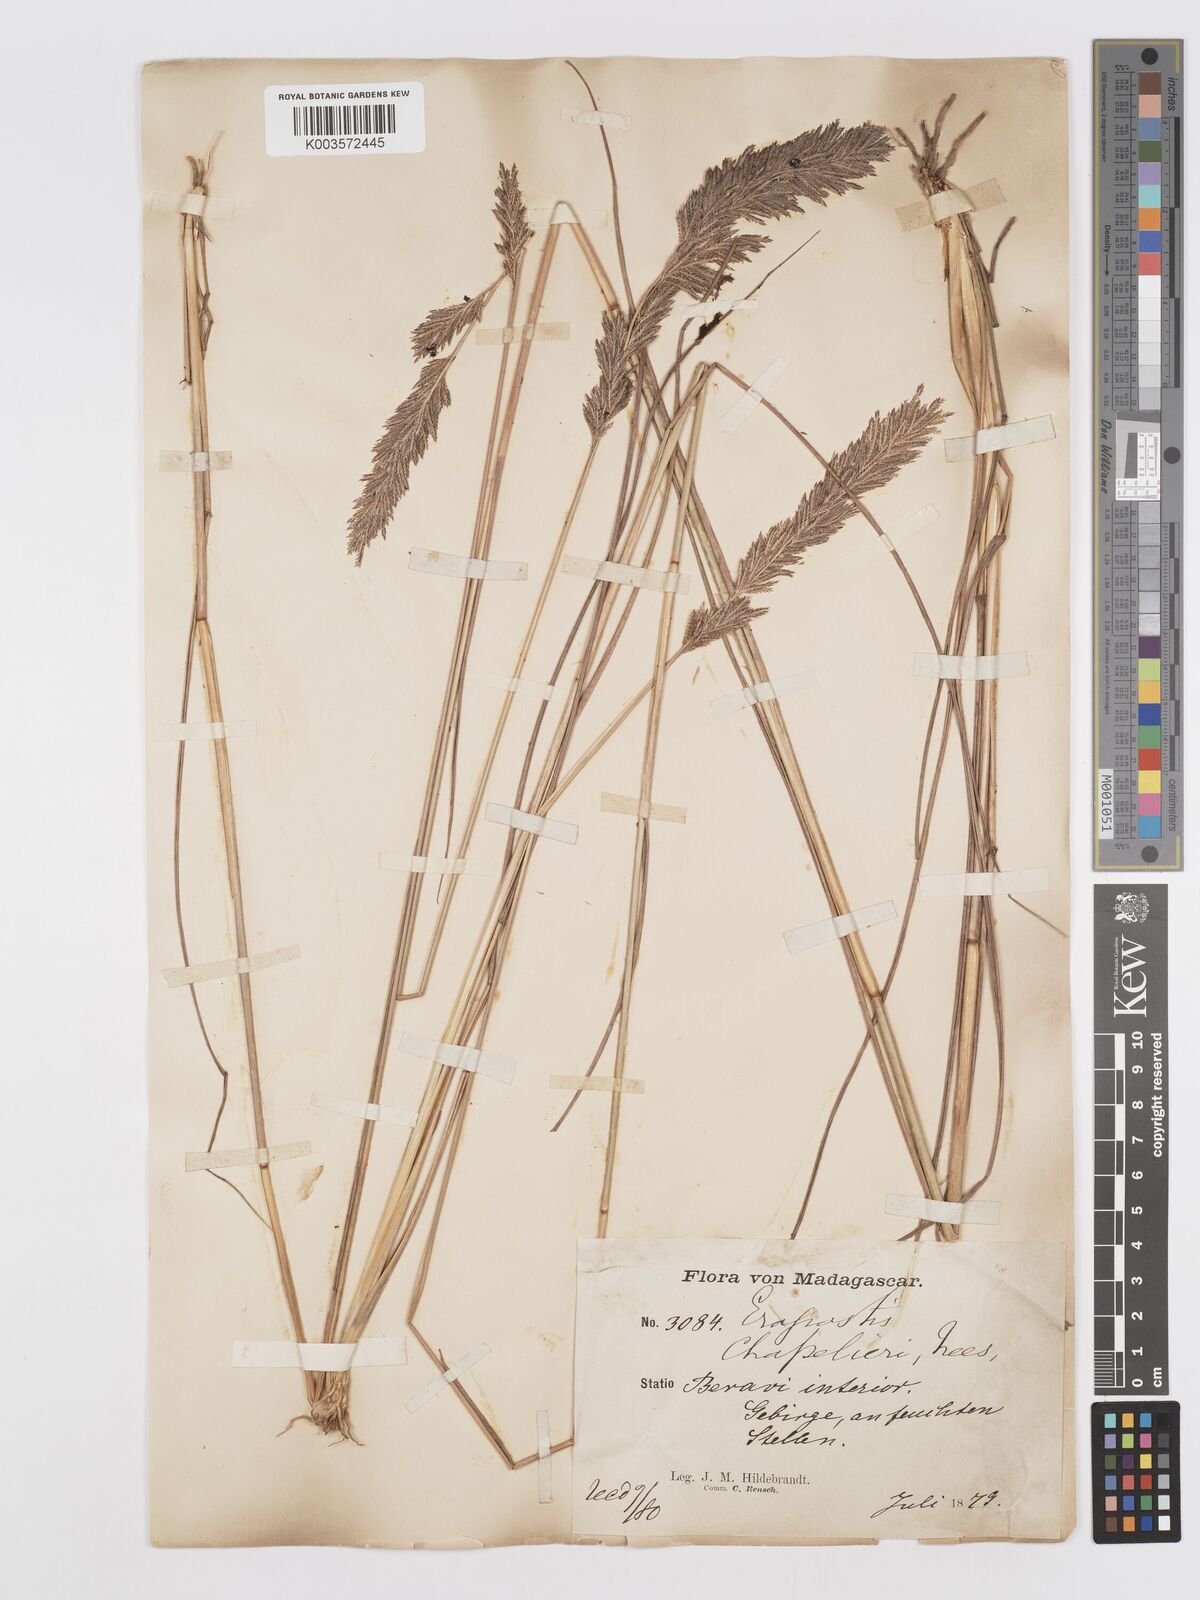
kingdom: Plantae
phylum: Tracheophyta
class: Liliopsida
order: Poales
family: Poaceae
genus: Eragrostis
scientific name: Eragrostis chapelieri
